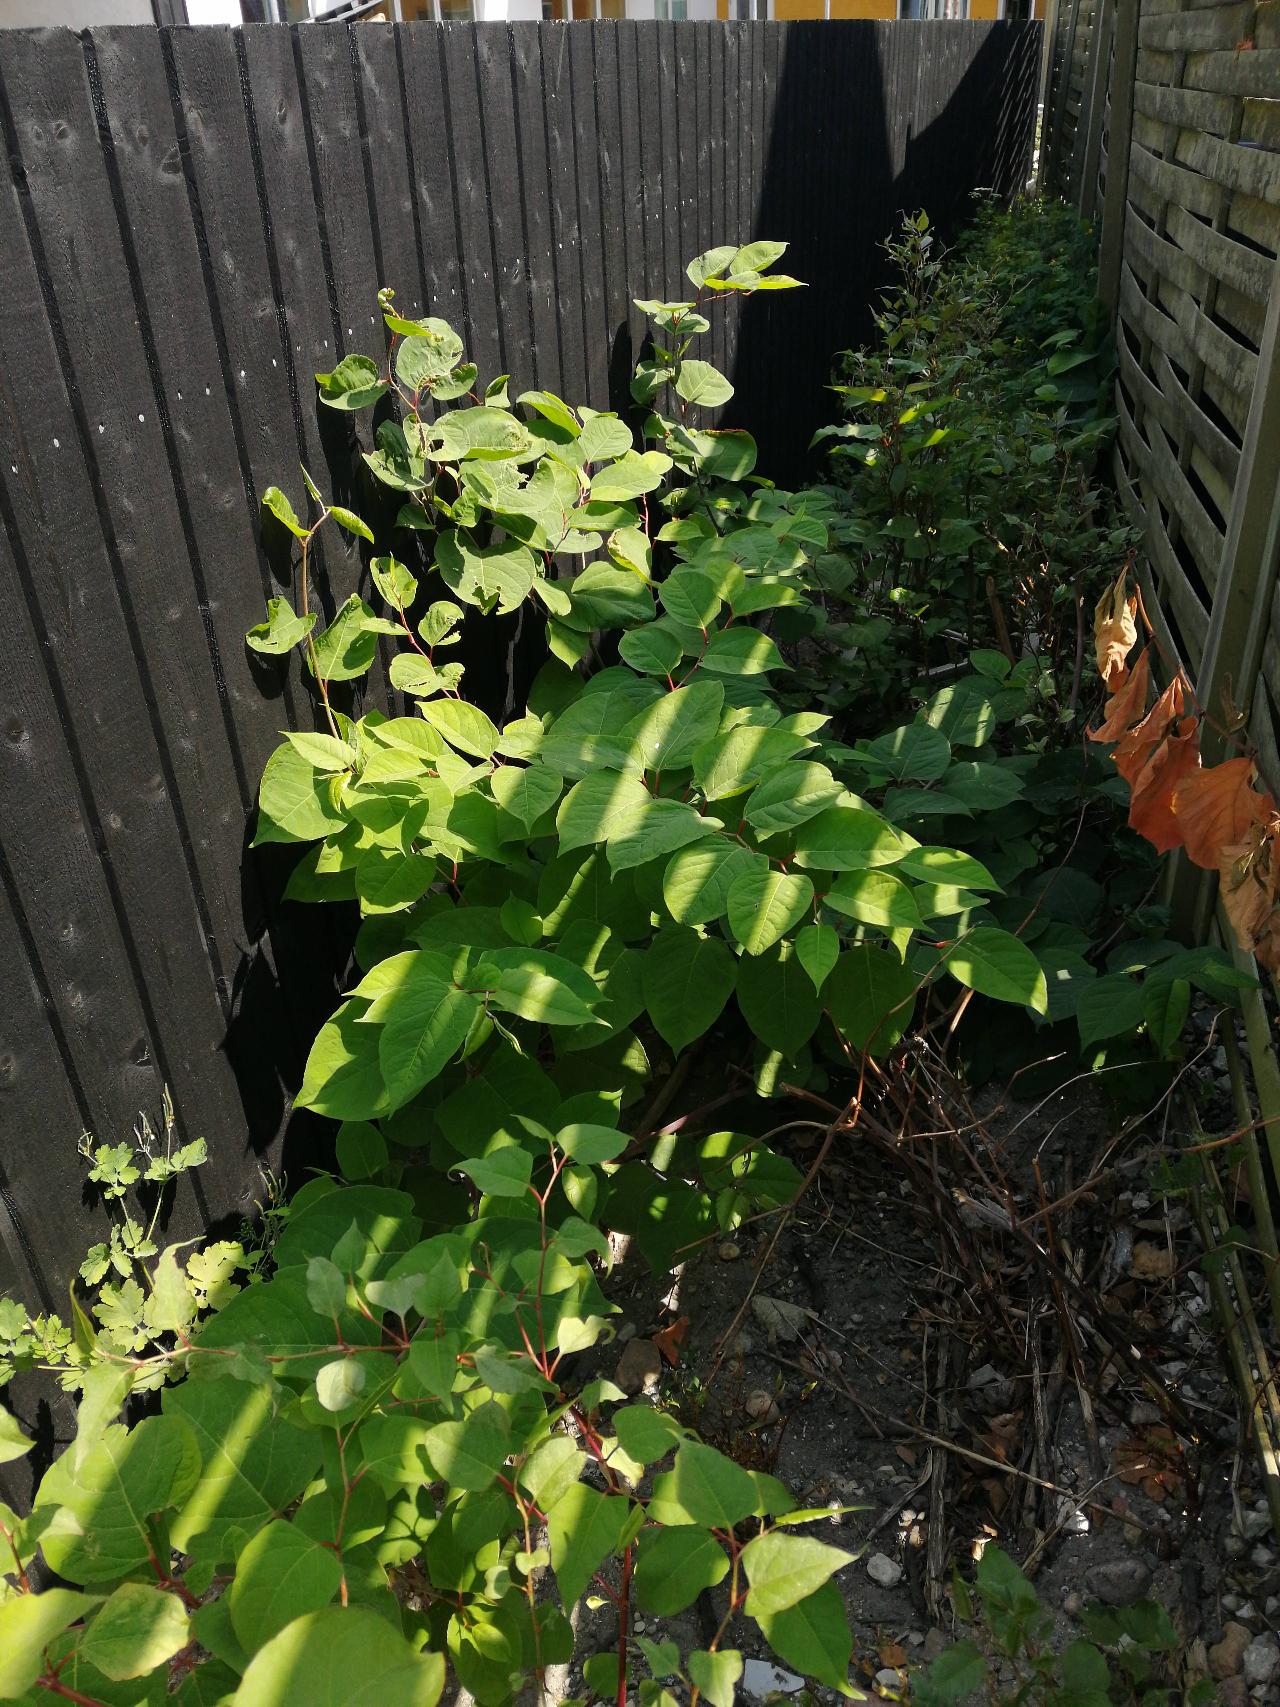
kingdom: Plantae
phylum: Tracheophyta
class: Magnoliopsida
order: Caryophyllales
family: Polygonaceae
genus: Reynoutria
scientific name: Reynoutria japonica
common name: Japan-pileurt
